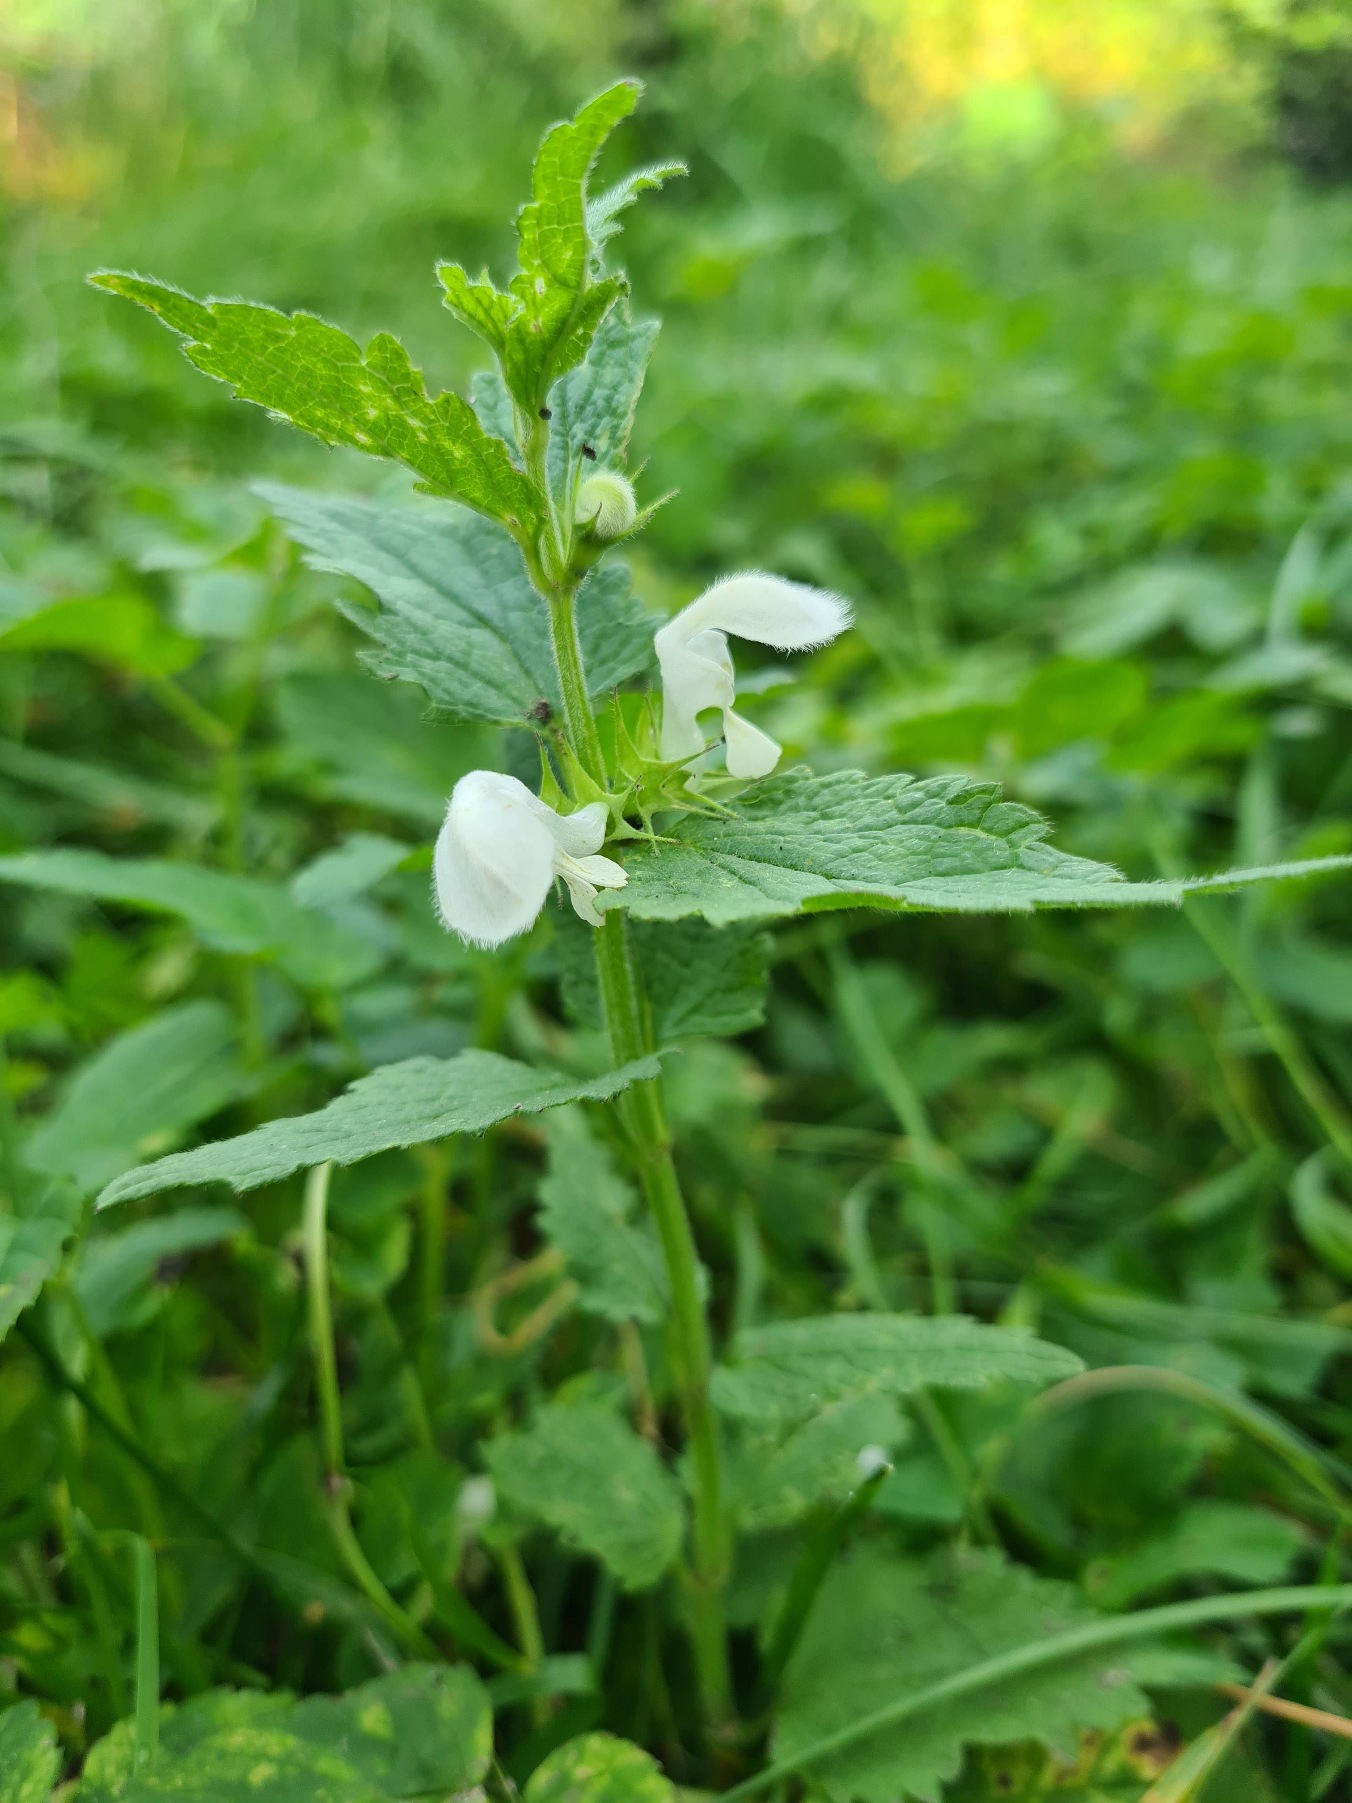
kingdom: Plantae
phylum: Tracheophyta
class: Magnoliopsida
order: Lamiales
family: Lamiaceae
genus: Lamium
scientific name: Lamium album
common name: Døvnælde
